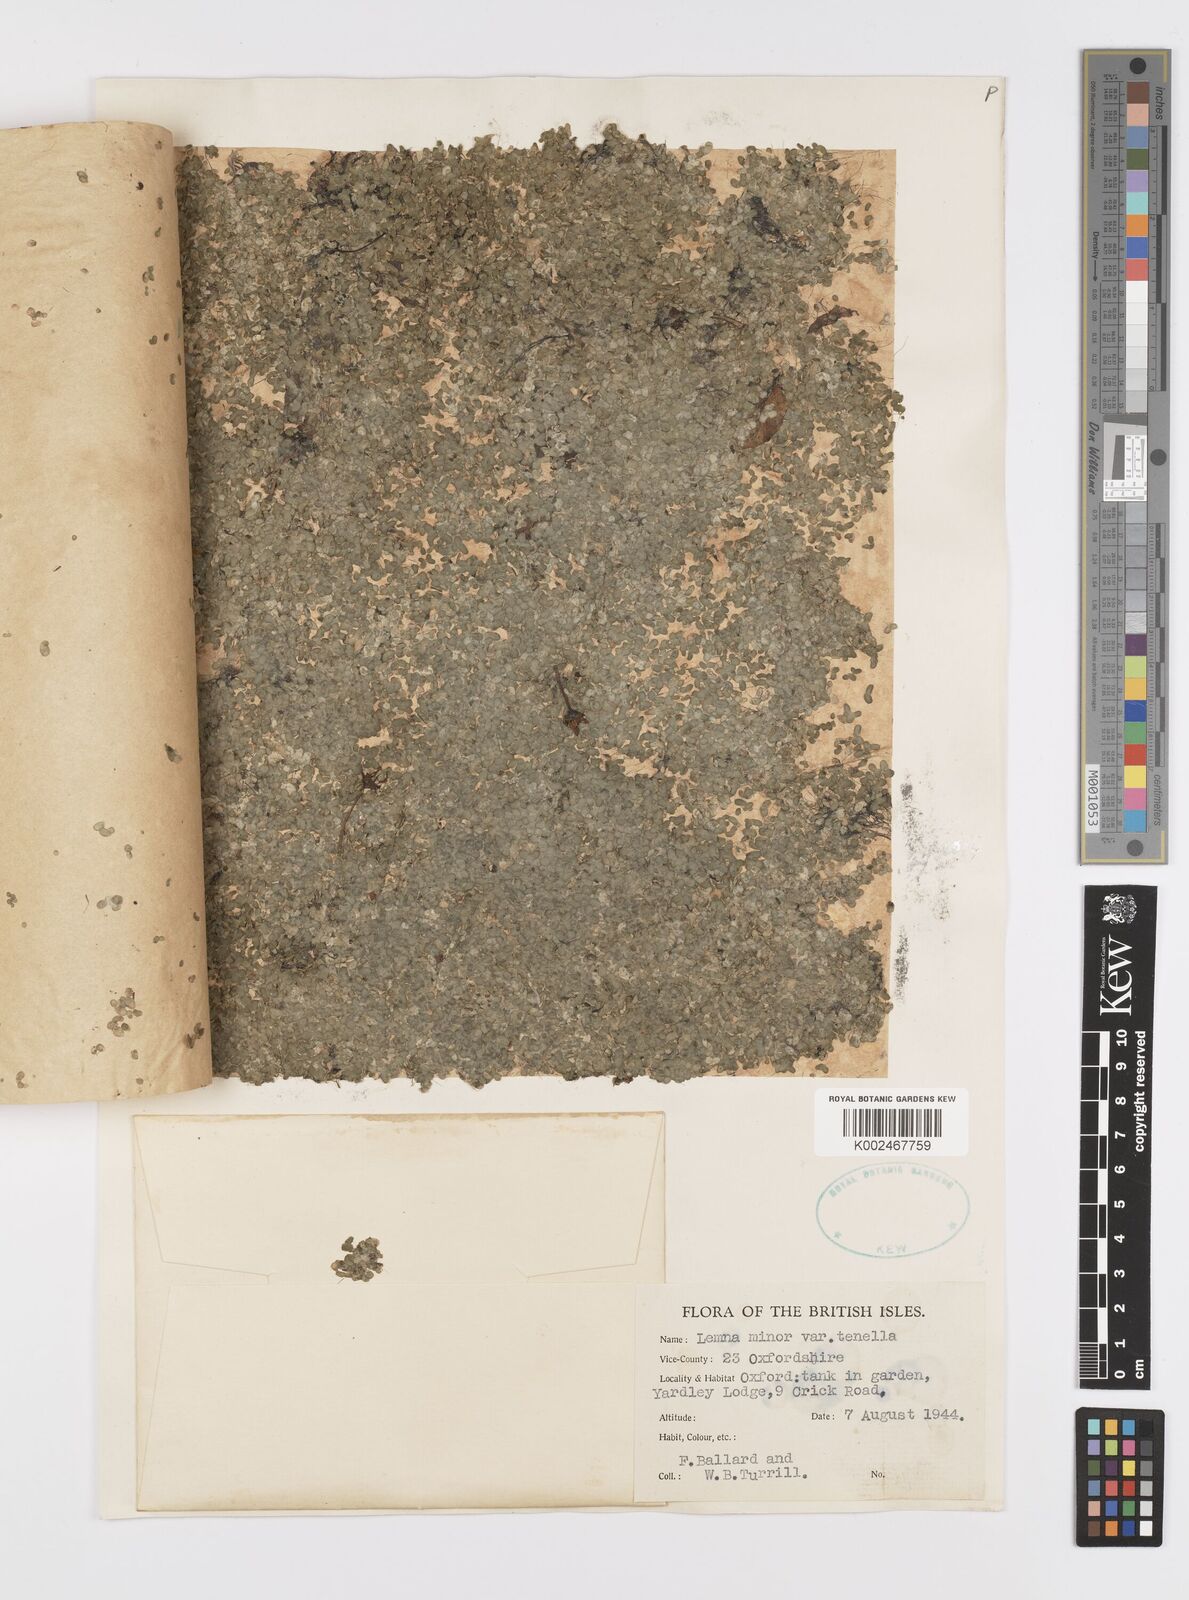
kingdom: Plantae
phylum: Tracheophyta
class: Liliopsida
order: Alismatales
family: Araceae
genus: Lemna
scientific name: Lemna minor
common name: Common duckweed
